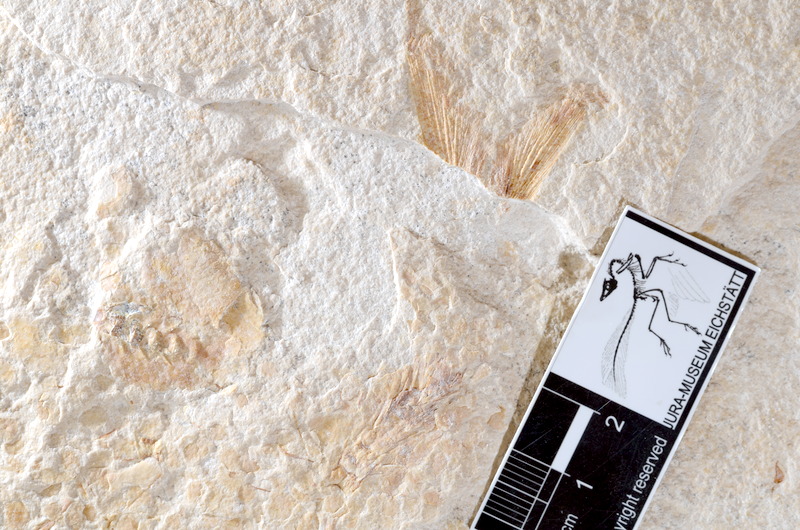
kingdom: Animalia
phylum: Chordata
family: Ascalaboidae
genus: Tharsis
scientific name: Tharsis dubius
